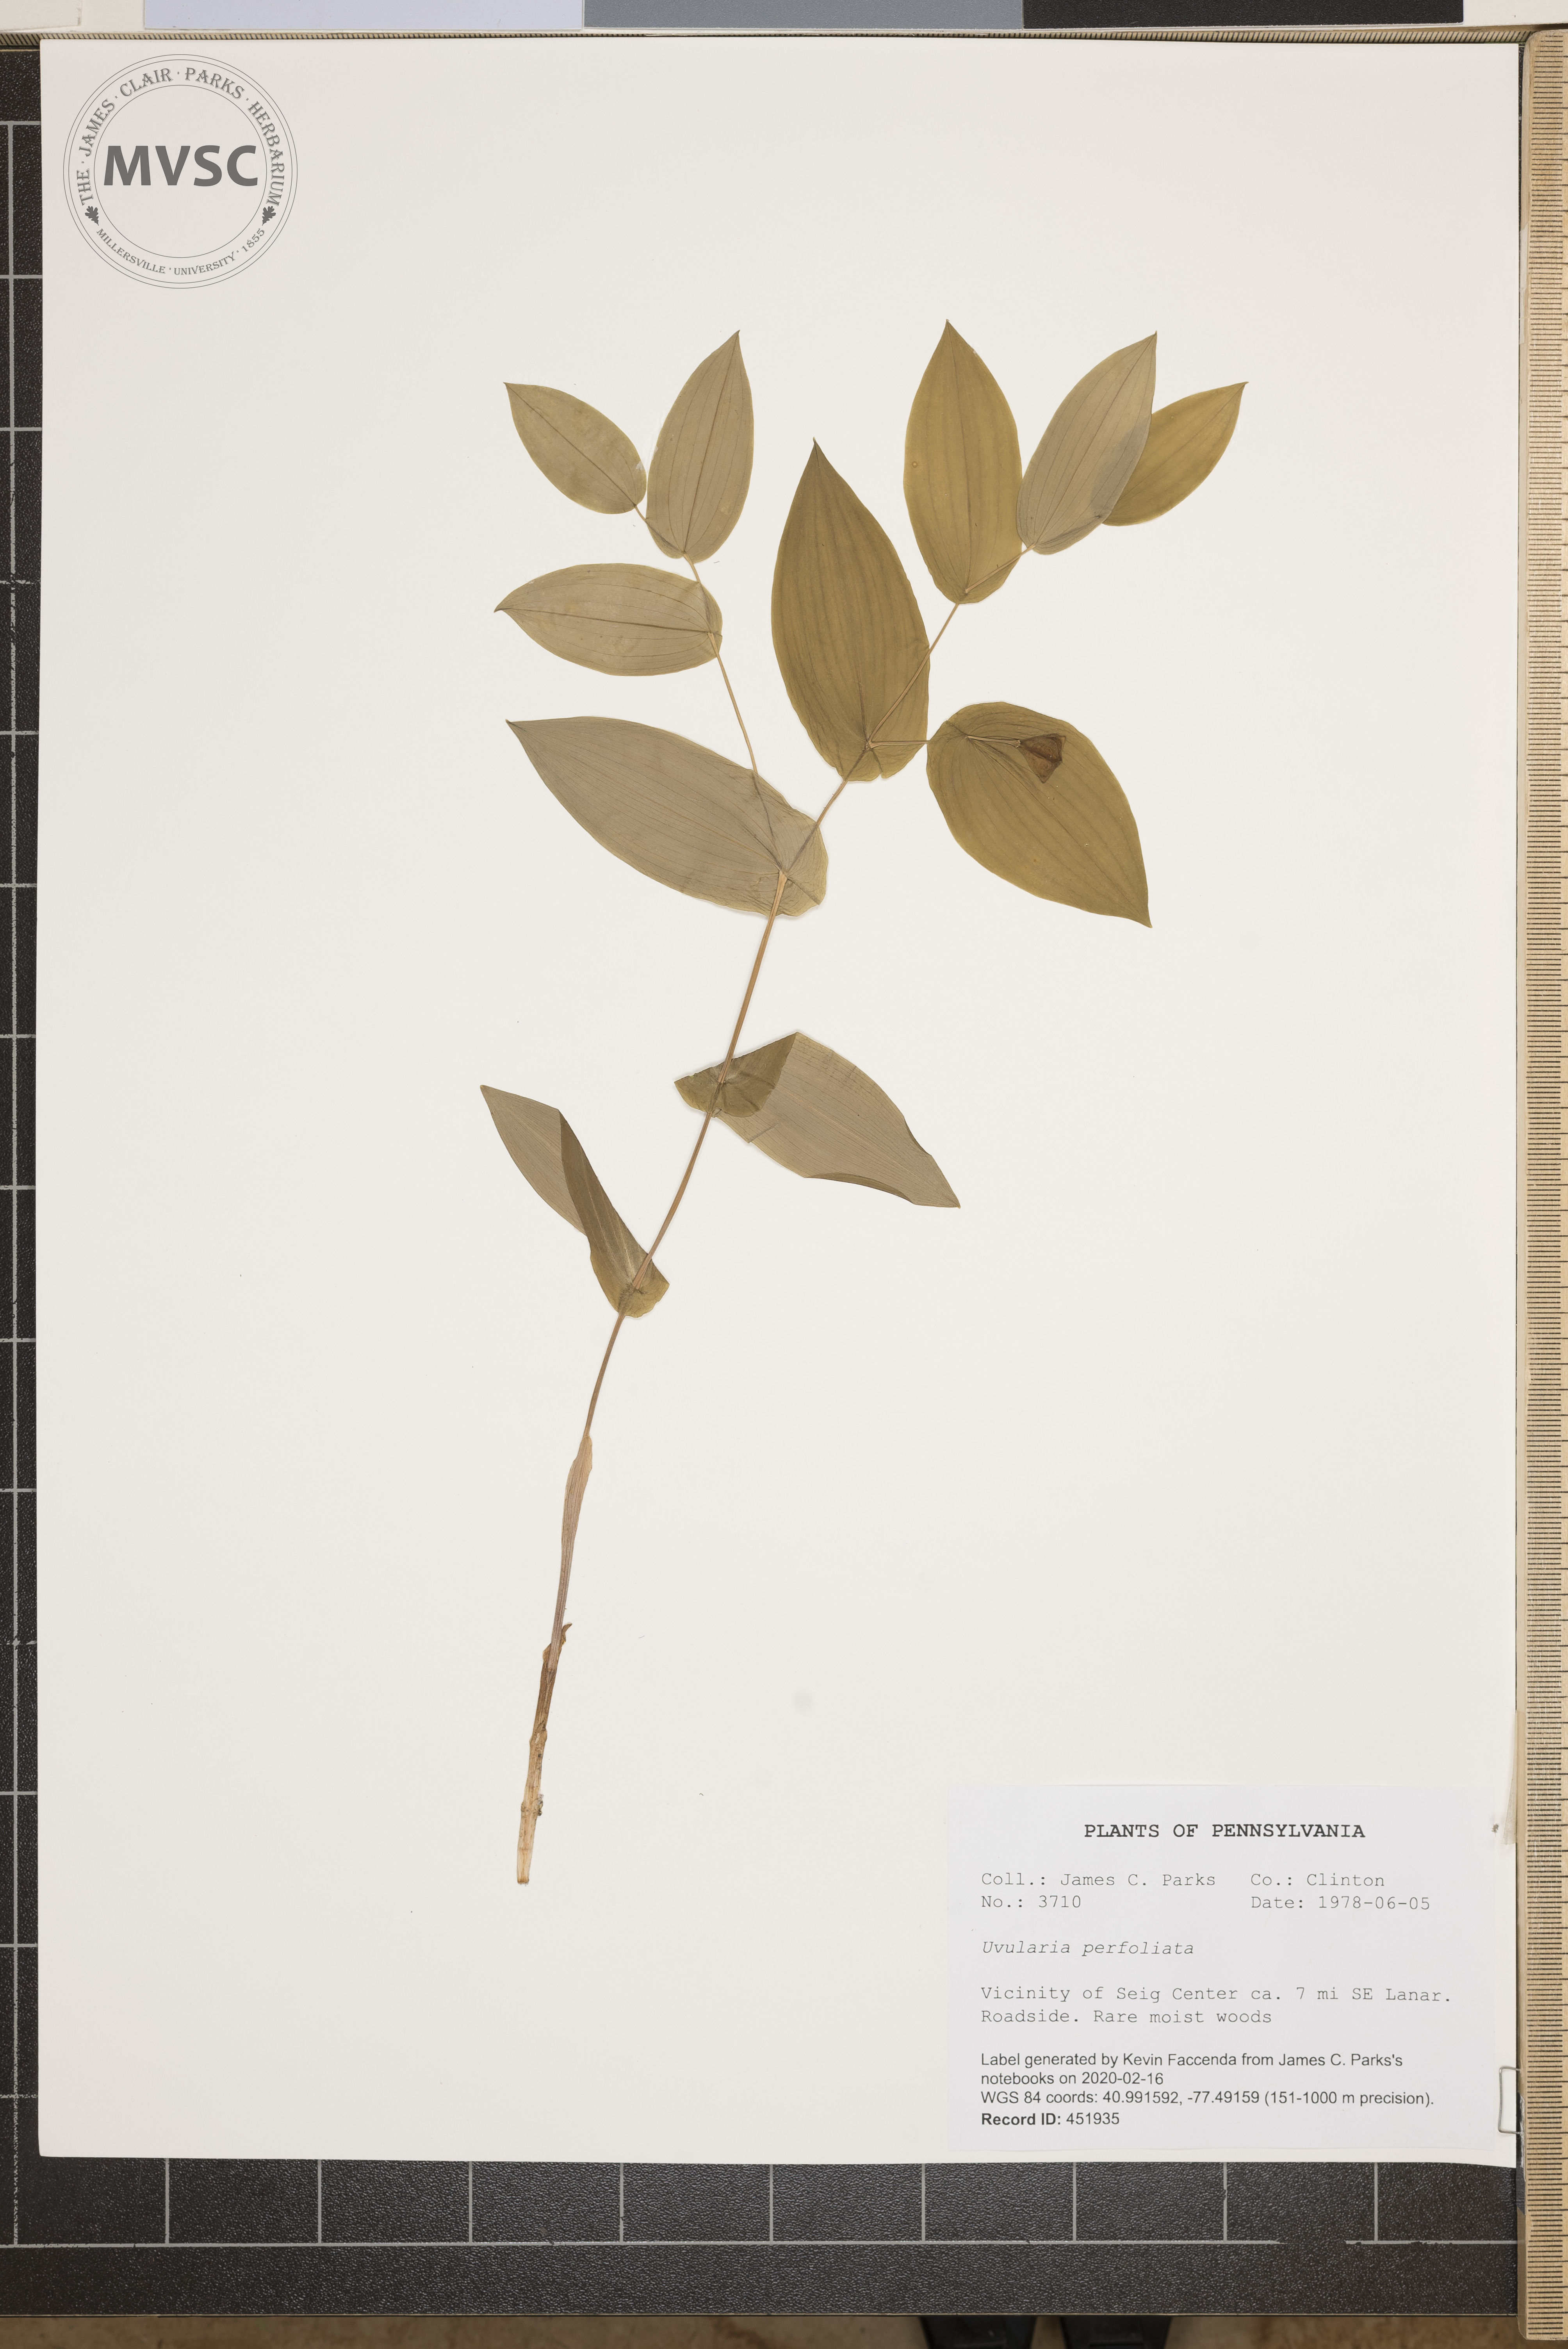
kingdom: Plantae
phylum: Tracheophyta
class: Liliopsida
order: Liliales
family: Colchicaceae
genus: Uvularia
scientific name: Uvularia perfoliata
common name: Perfoliate bellwort
